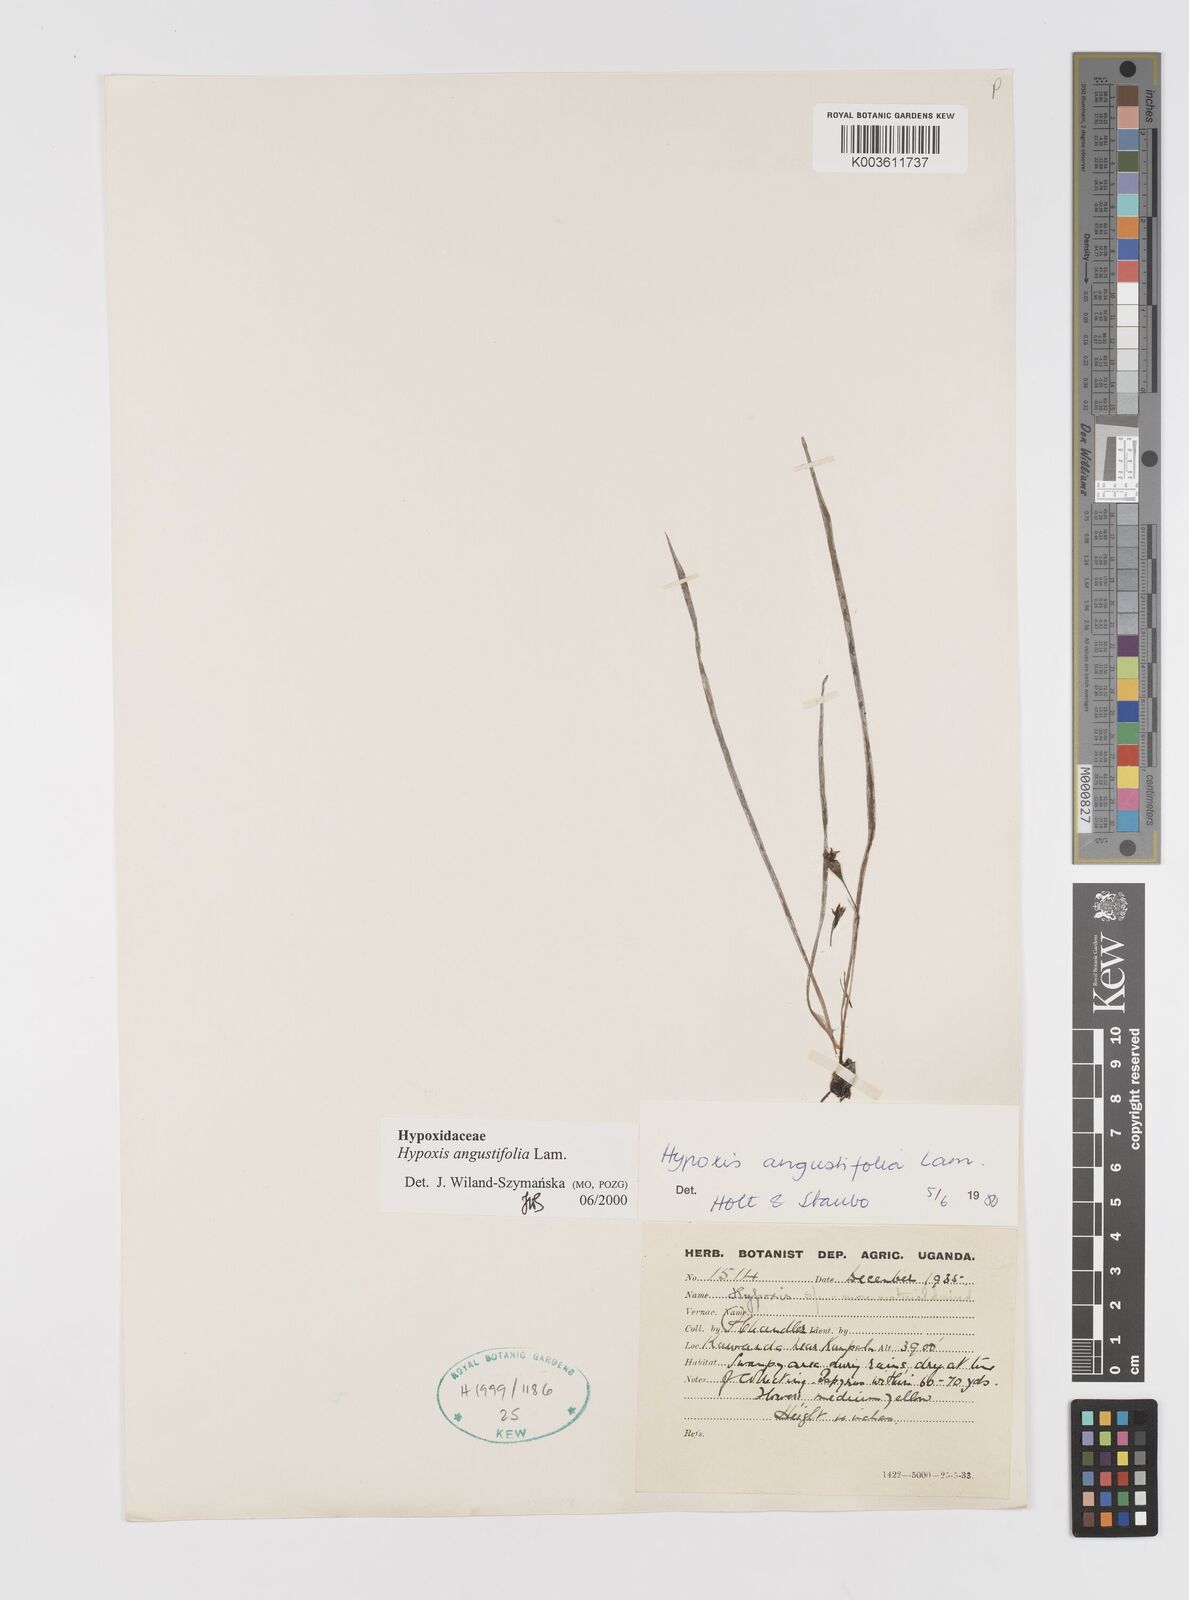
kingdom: Plantae
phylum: Tracheophyta
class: Liliopsida
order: Asparagales
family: Hypoxidaceae
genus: Hypoxis
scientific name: Hypoxis angustifolia
